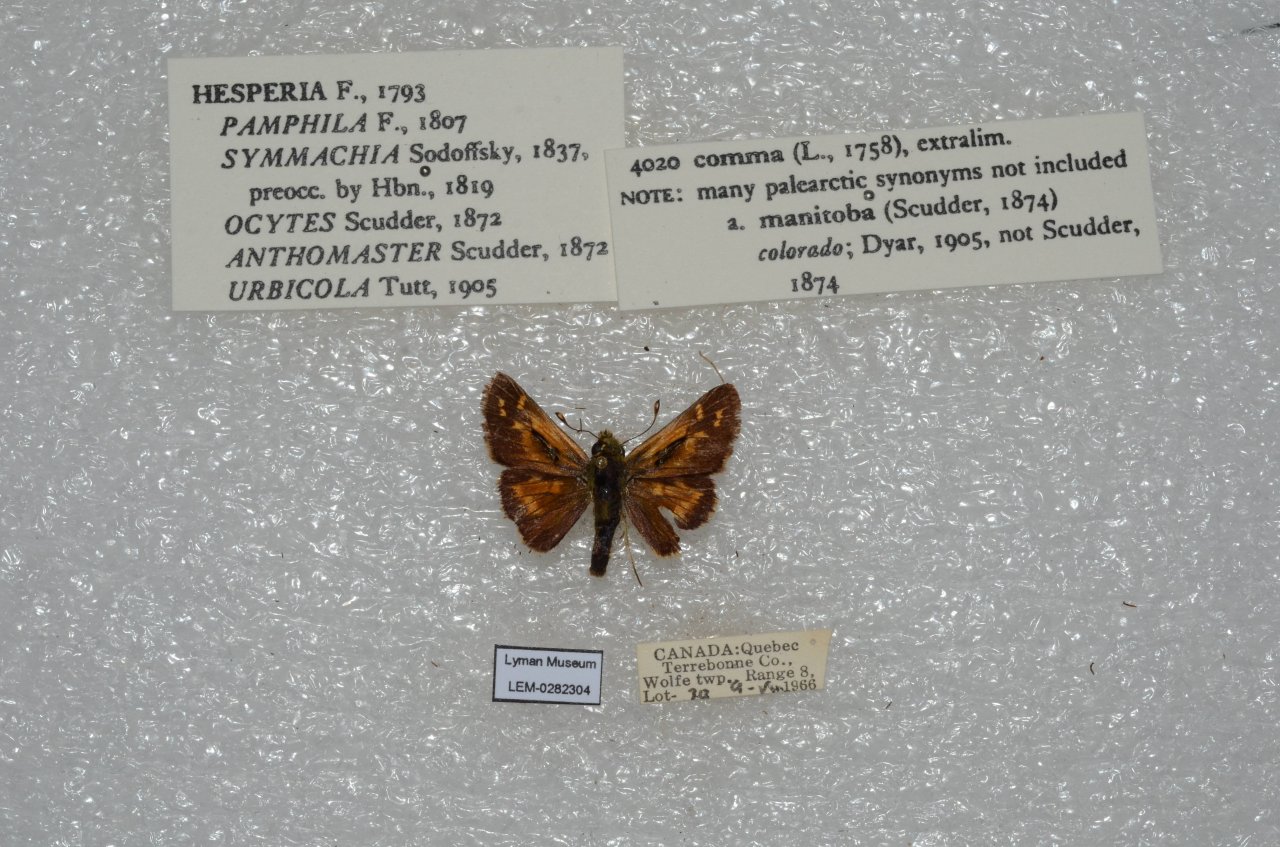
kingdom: Animalia
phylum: Arthropoda
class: Insecta
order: Lepidoptera
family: Hesperiidae
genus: Hesperia
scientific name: Hesperia comma
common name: Common Branded Skipper
